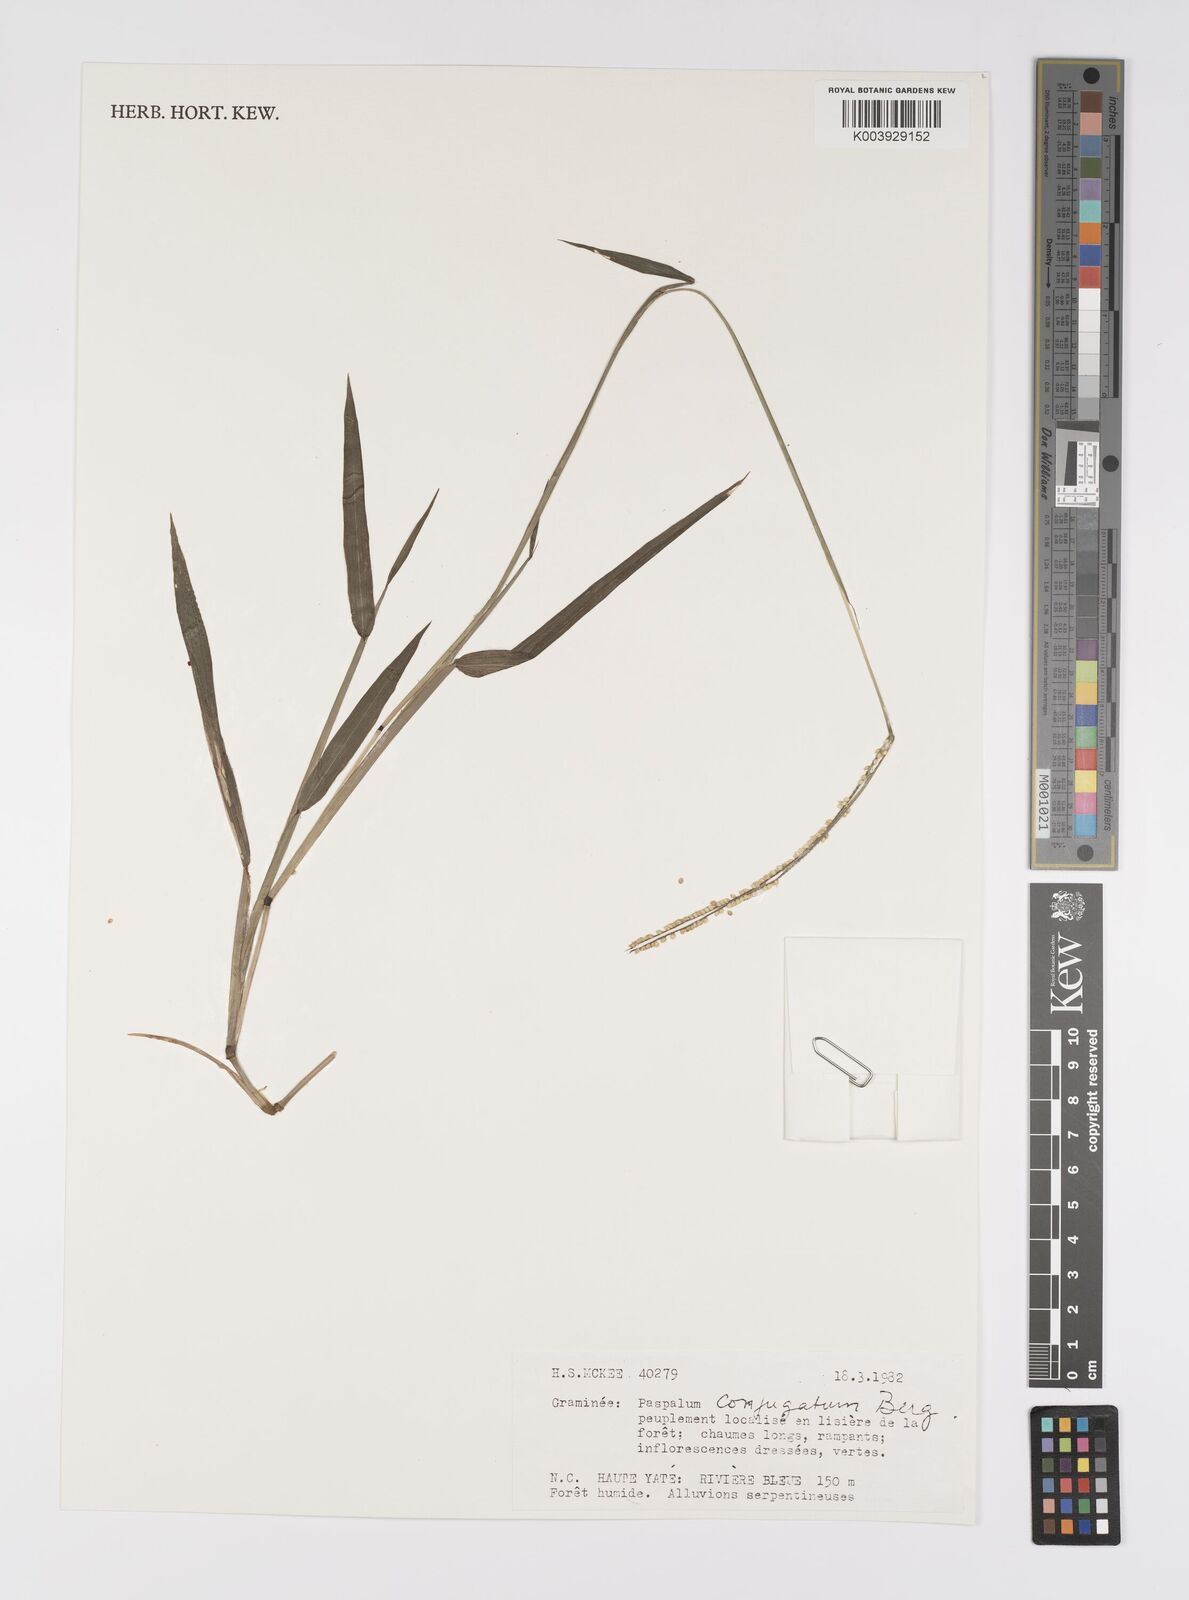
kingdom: Plantae
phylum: Tracheophyta
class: Liliopsida
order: Poales
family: Poaceae
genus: Paspalum
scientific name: Paspalum conjugatum
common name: Hilograss
